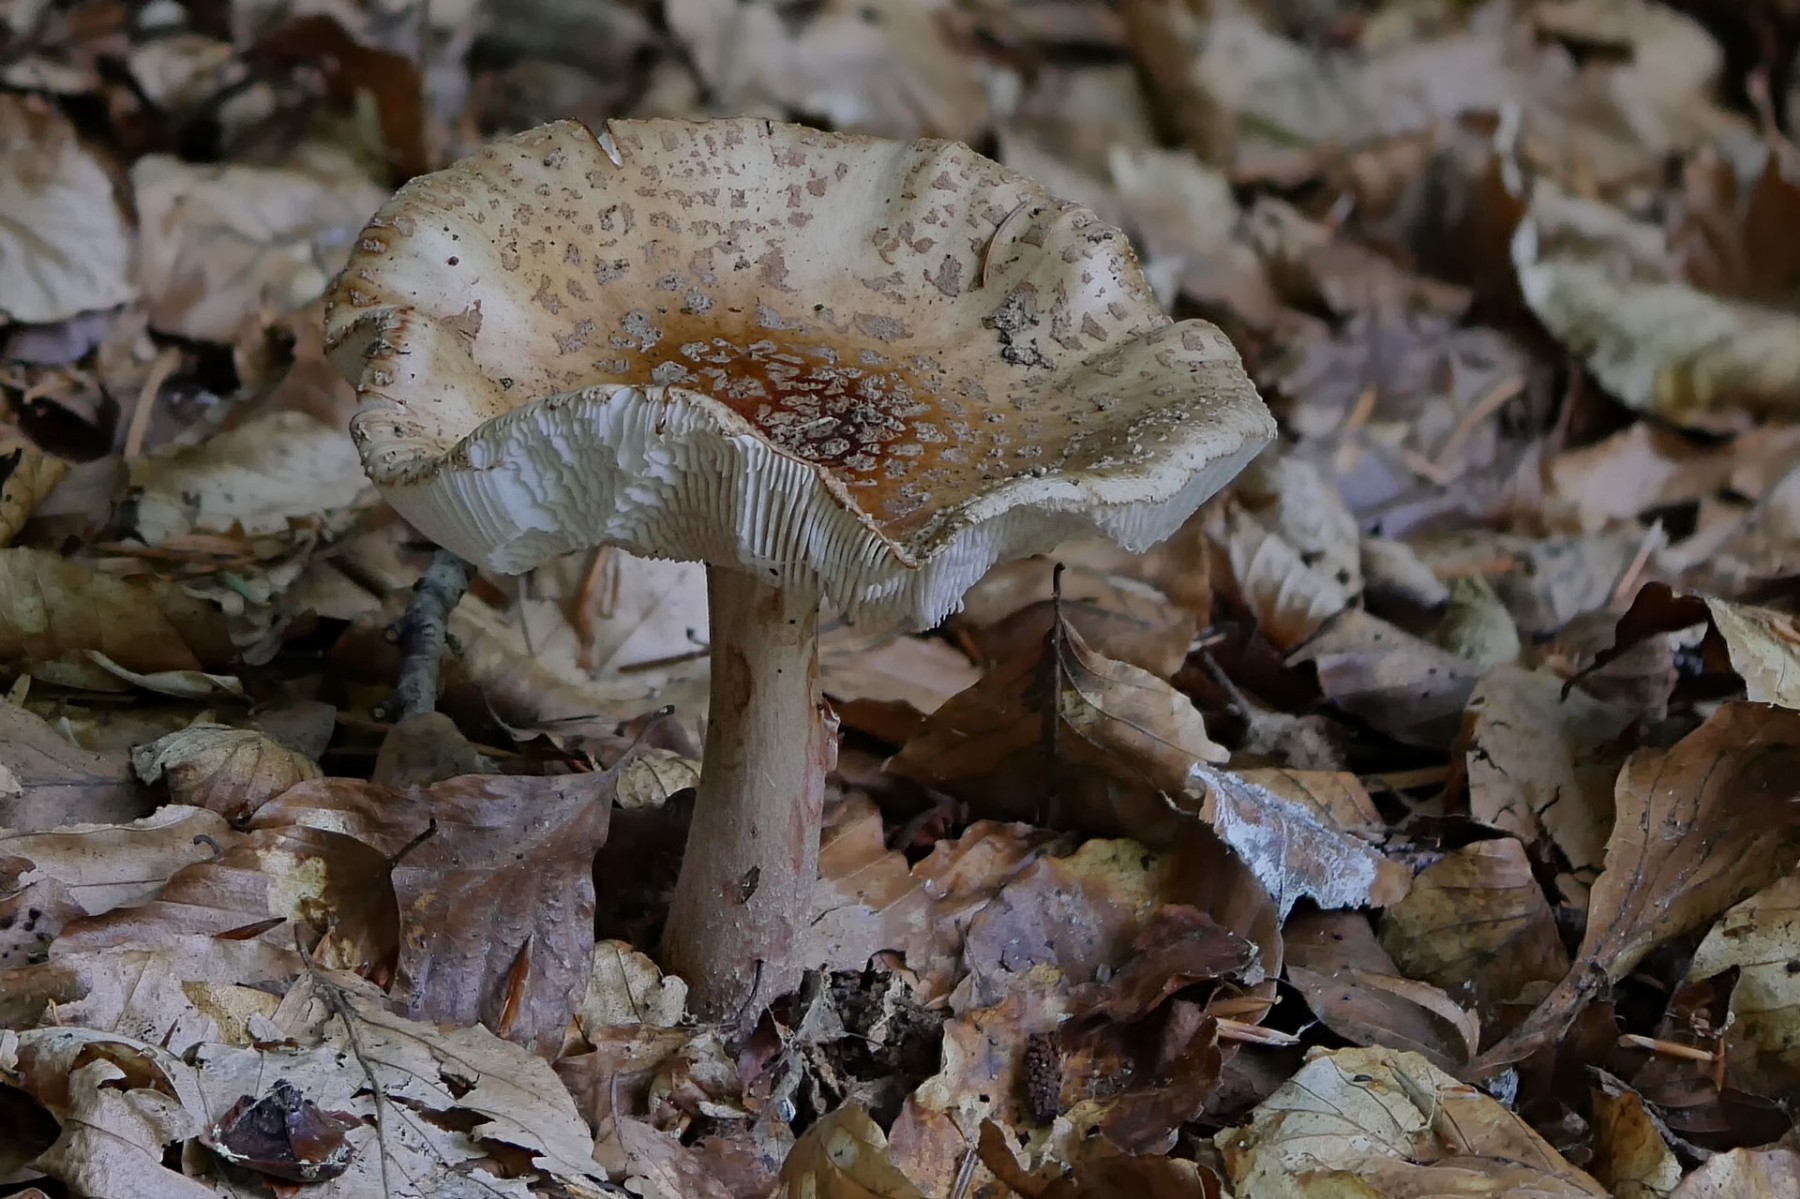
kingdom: Fungi
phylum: Basidiomycota
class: Agaricomycetes
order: Agaricales
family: Amanitaceae
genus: Amanita
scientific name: Amanita rubescens
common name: rødmende fluesvamp
